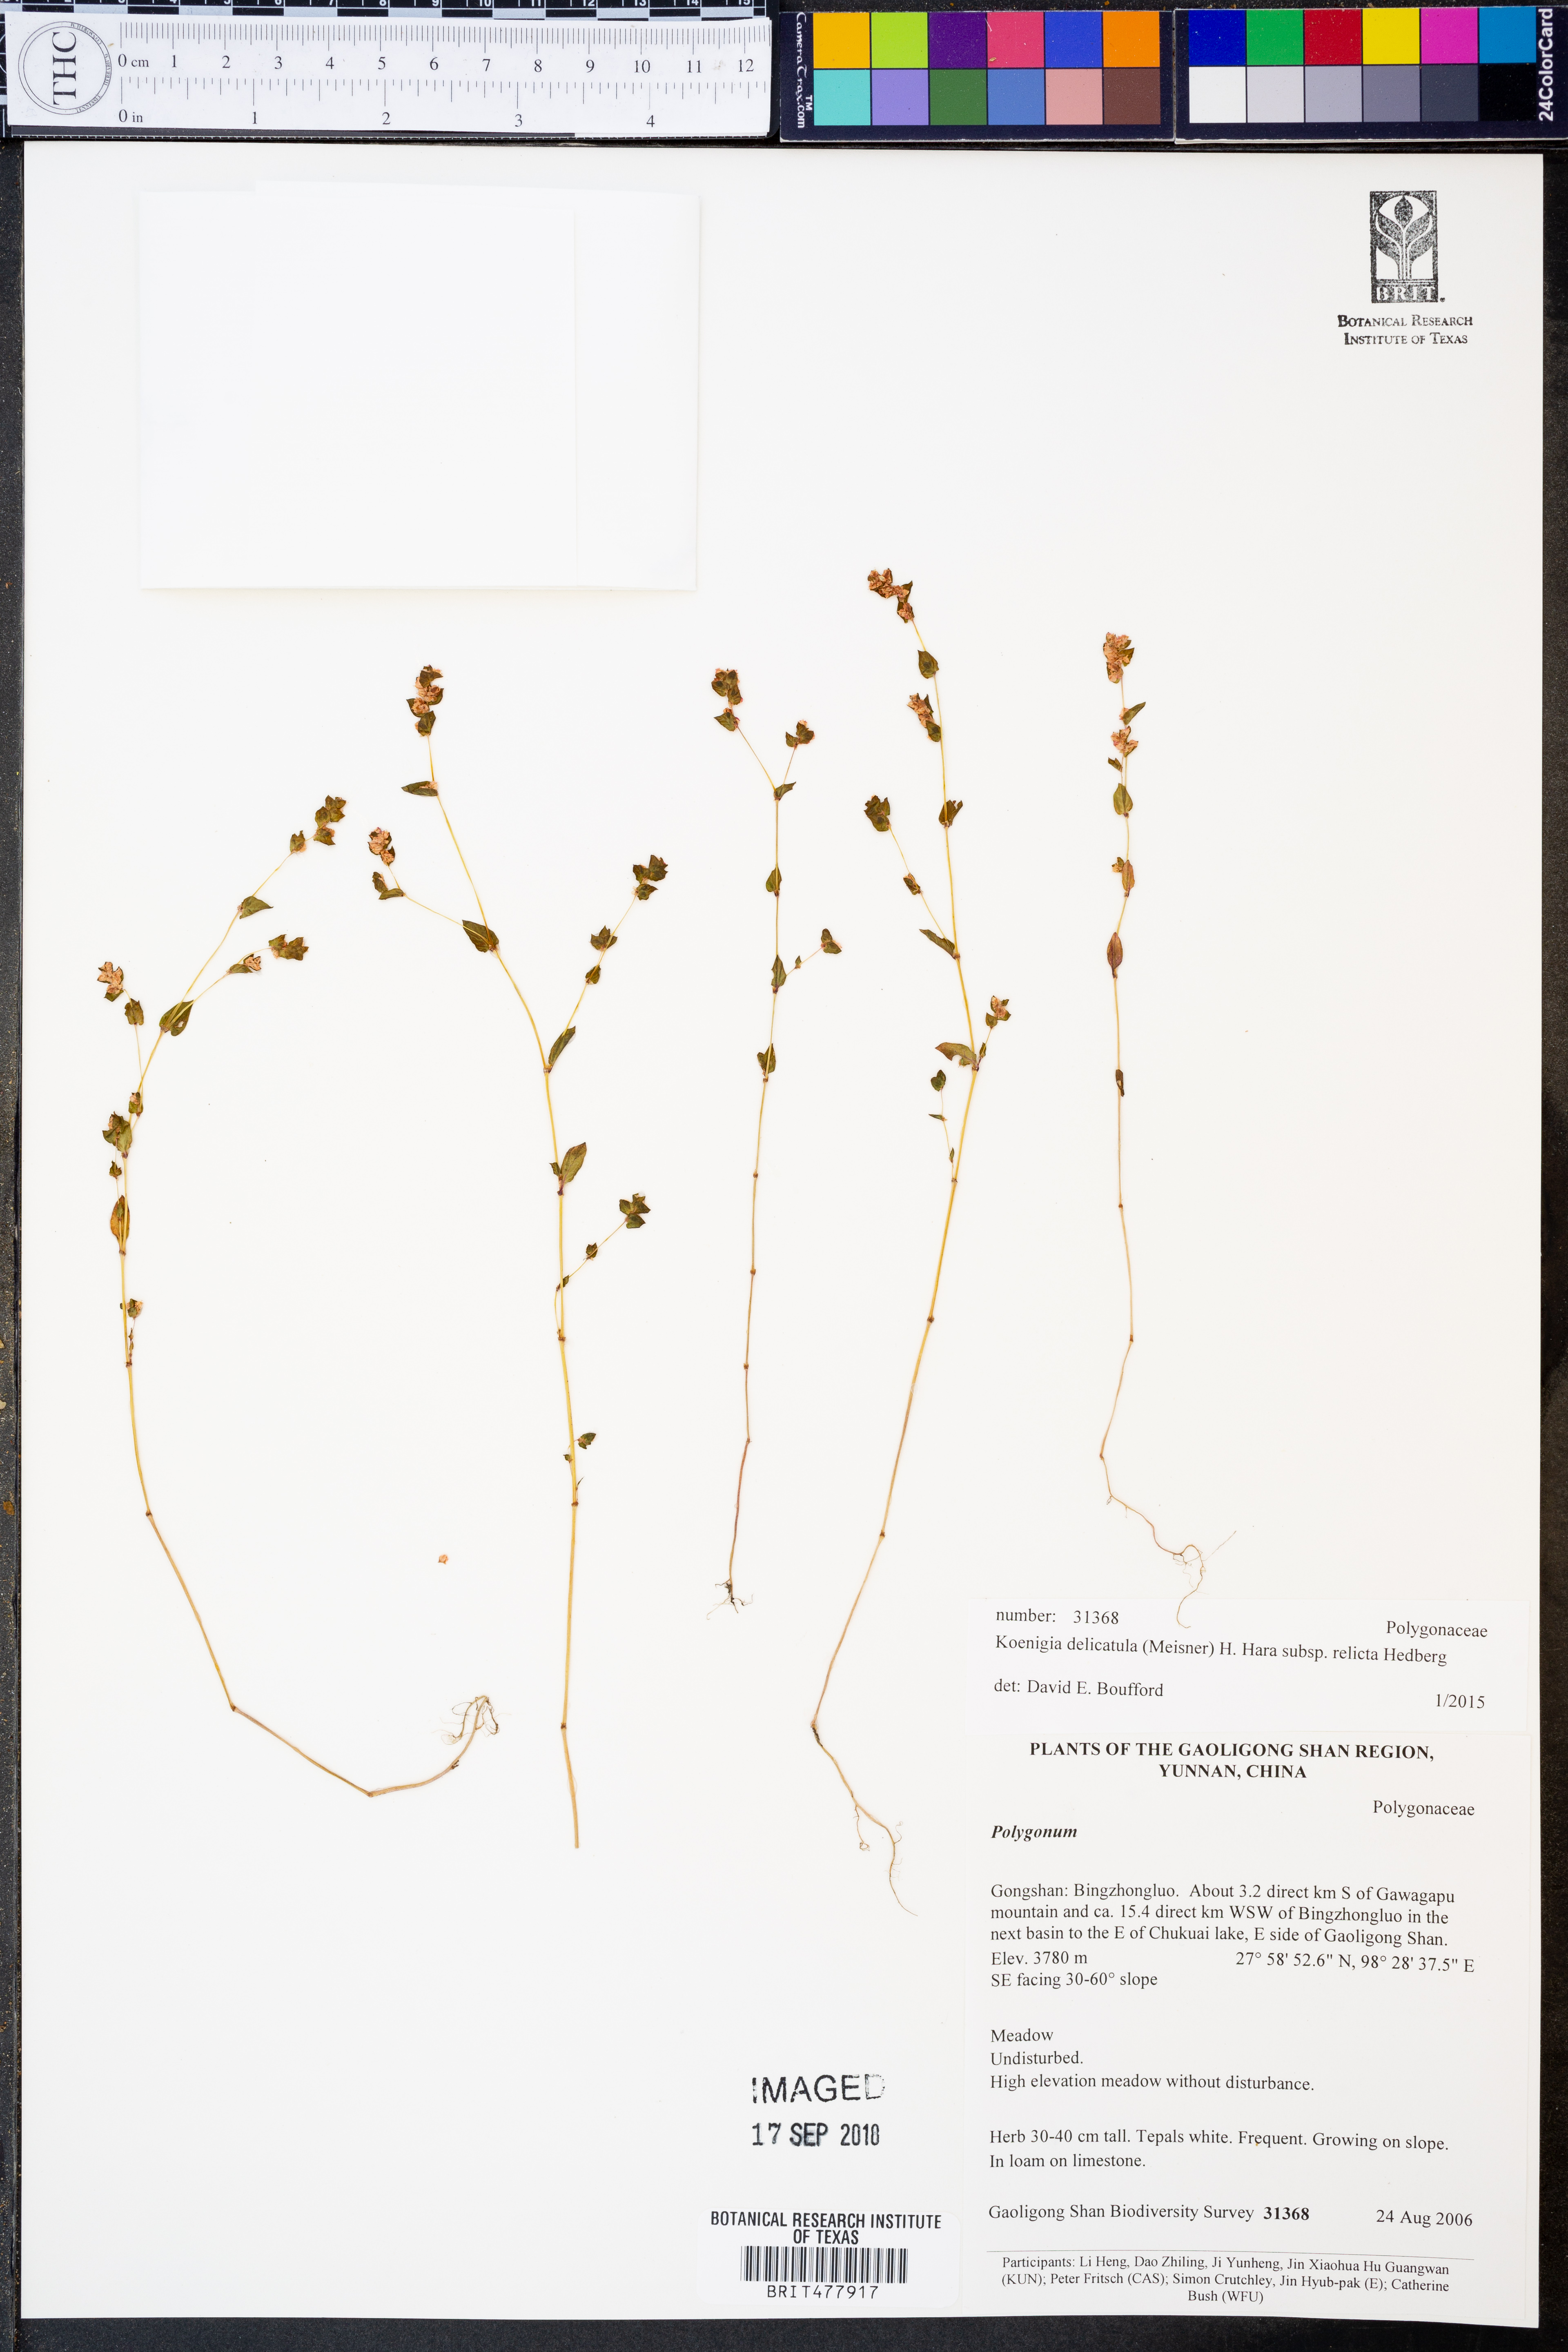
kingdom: Plantae
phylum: Tracheophyta
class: Magnoliopsida
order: Caryophyllales
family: Polygonaceae
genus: Koenigia
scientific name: Koenigia delicatula
